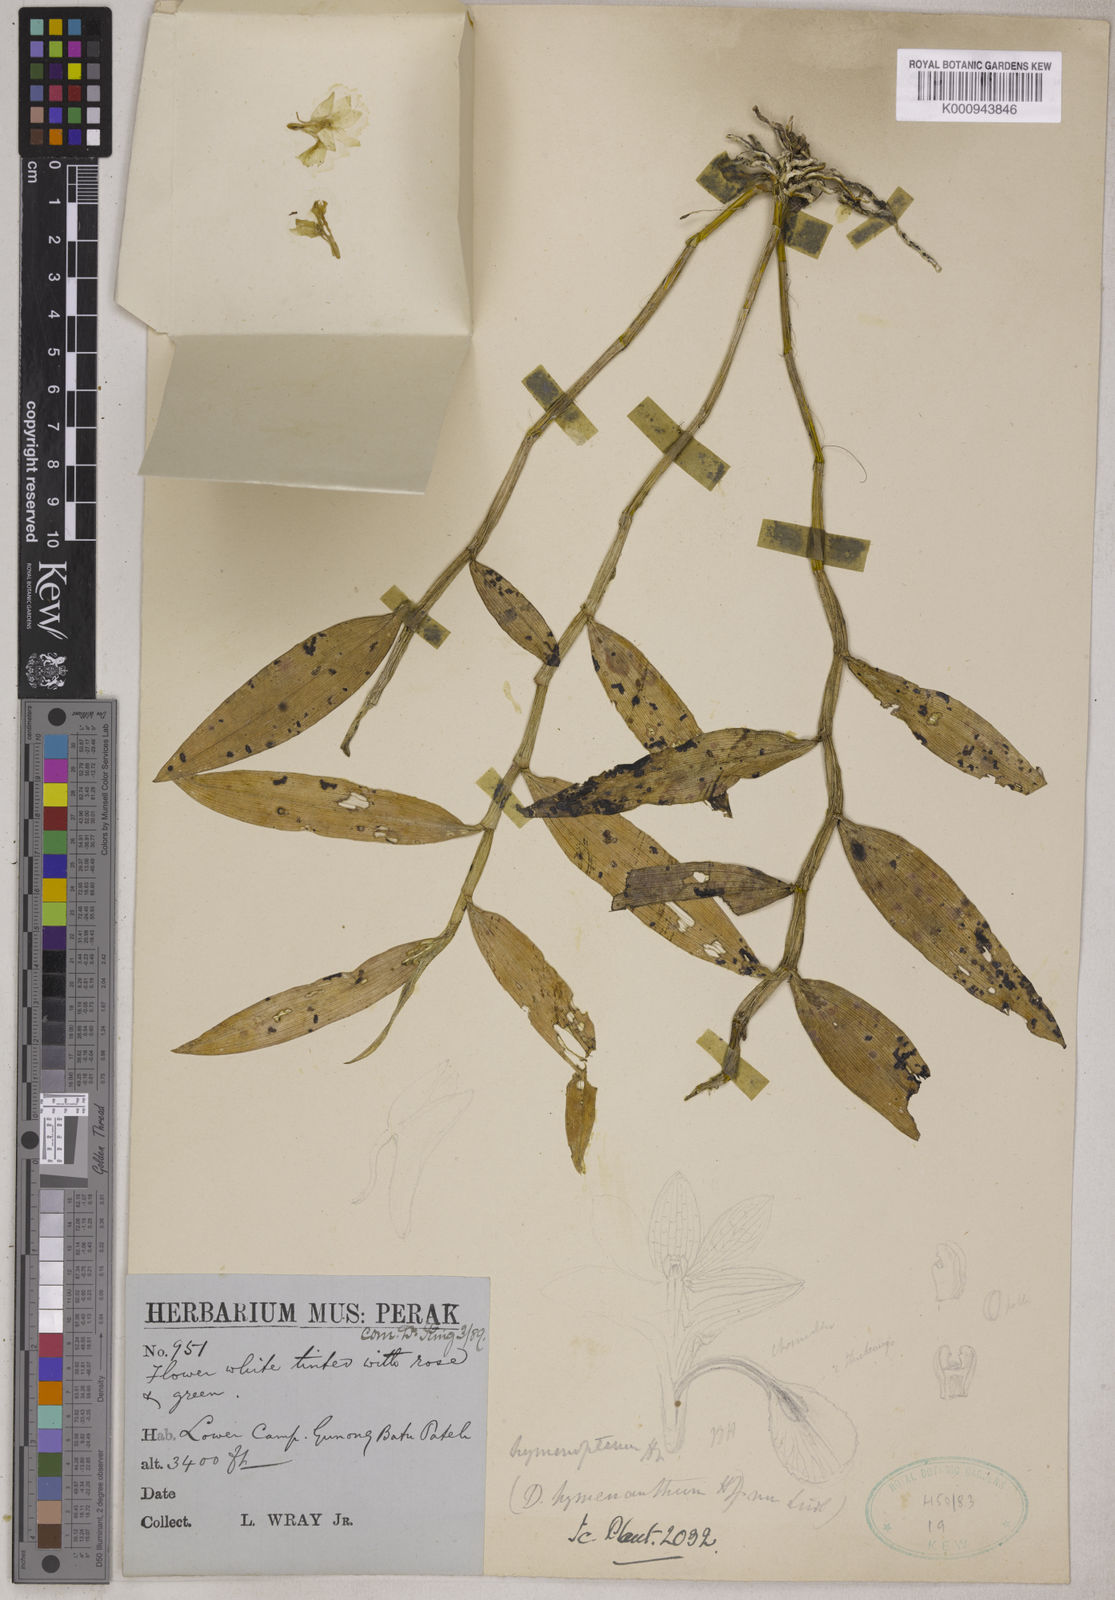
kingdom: Plantae
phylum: Tracheophyta
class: Liliopsida
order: Asparagales
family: Orchidaceae
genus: Dendrobium
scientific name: Dendrobium hymenopterum
